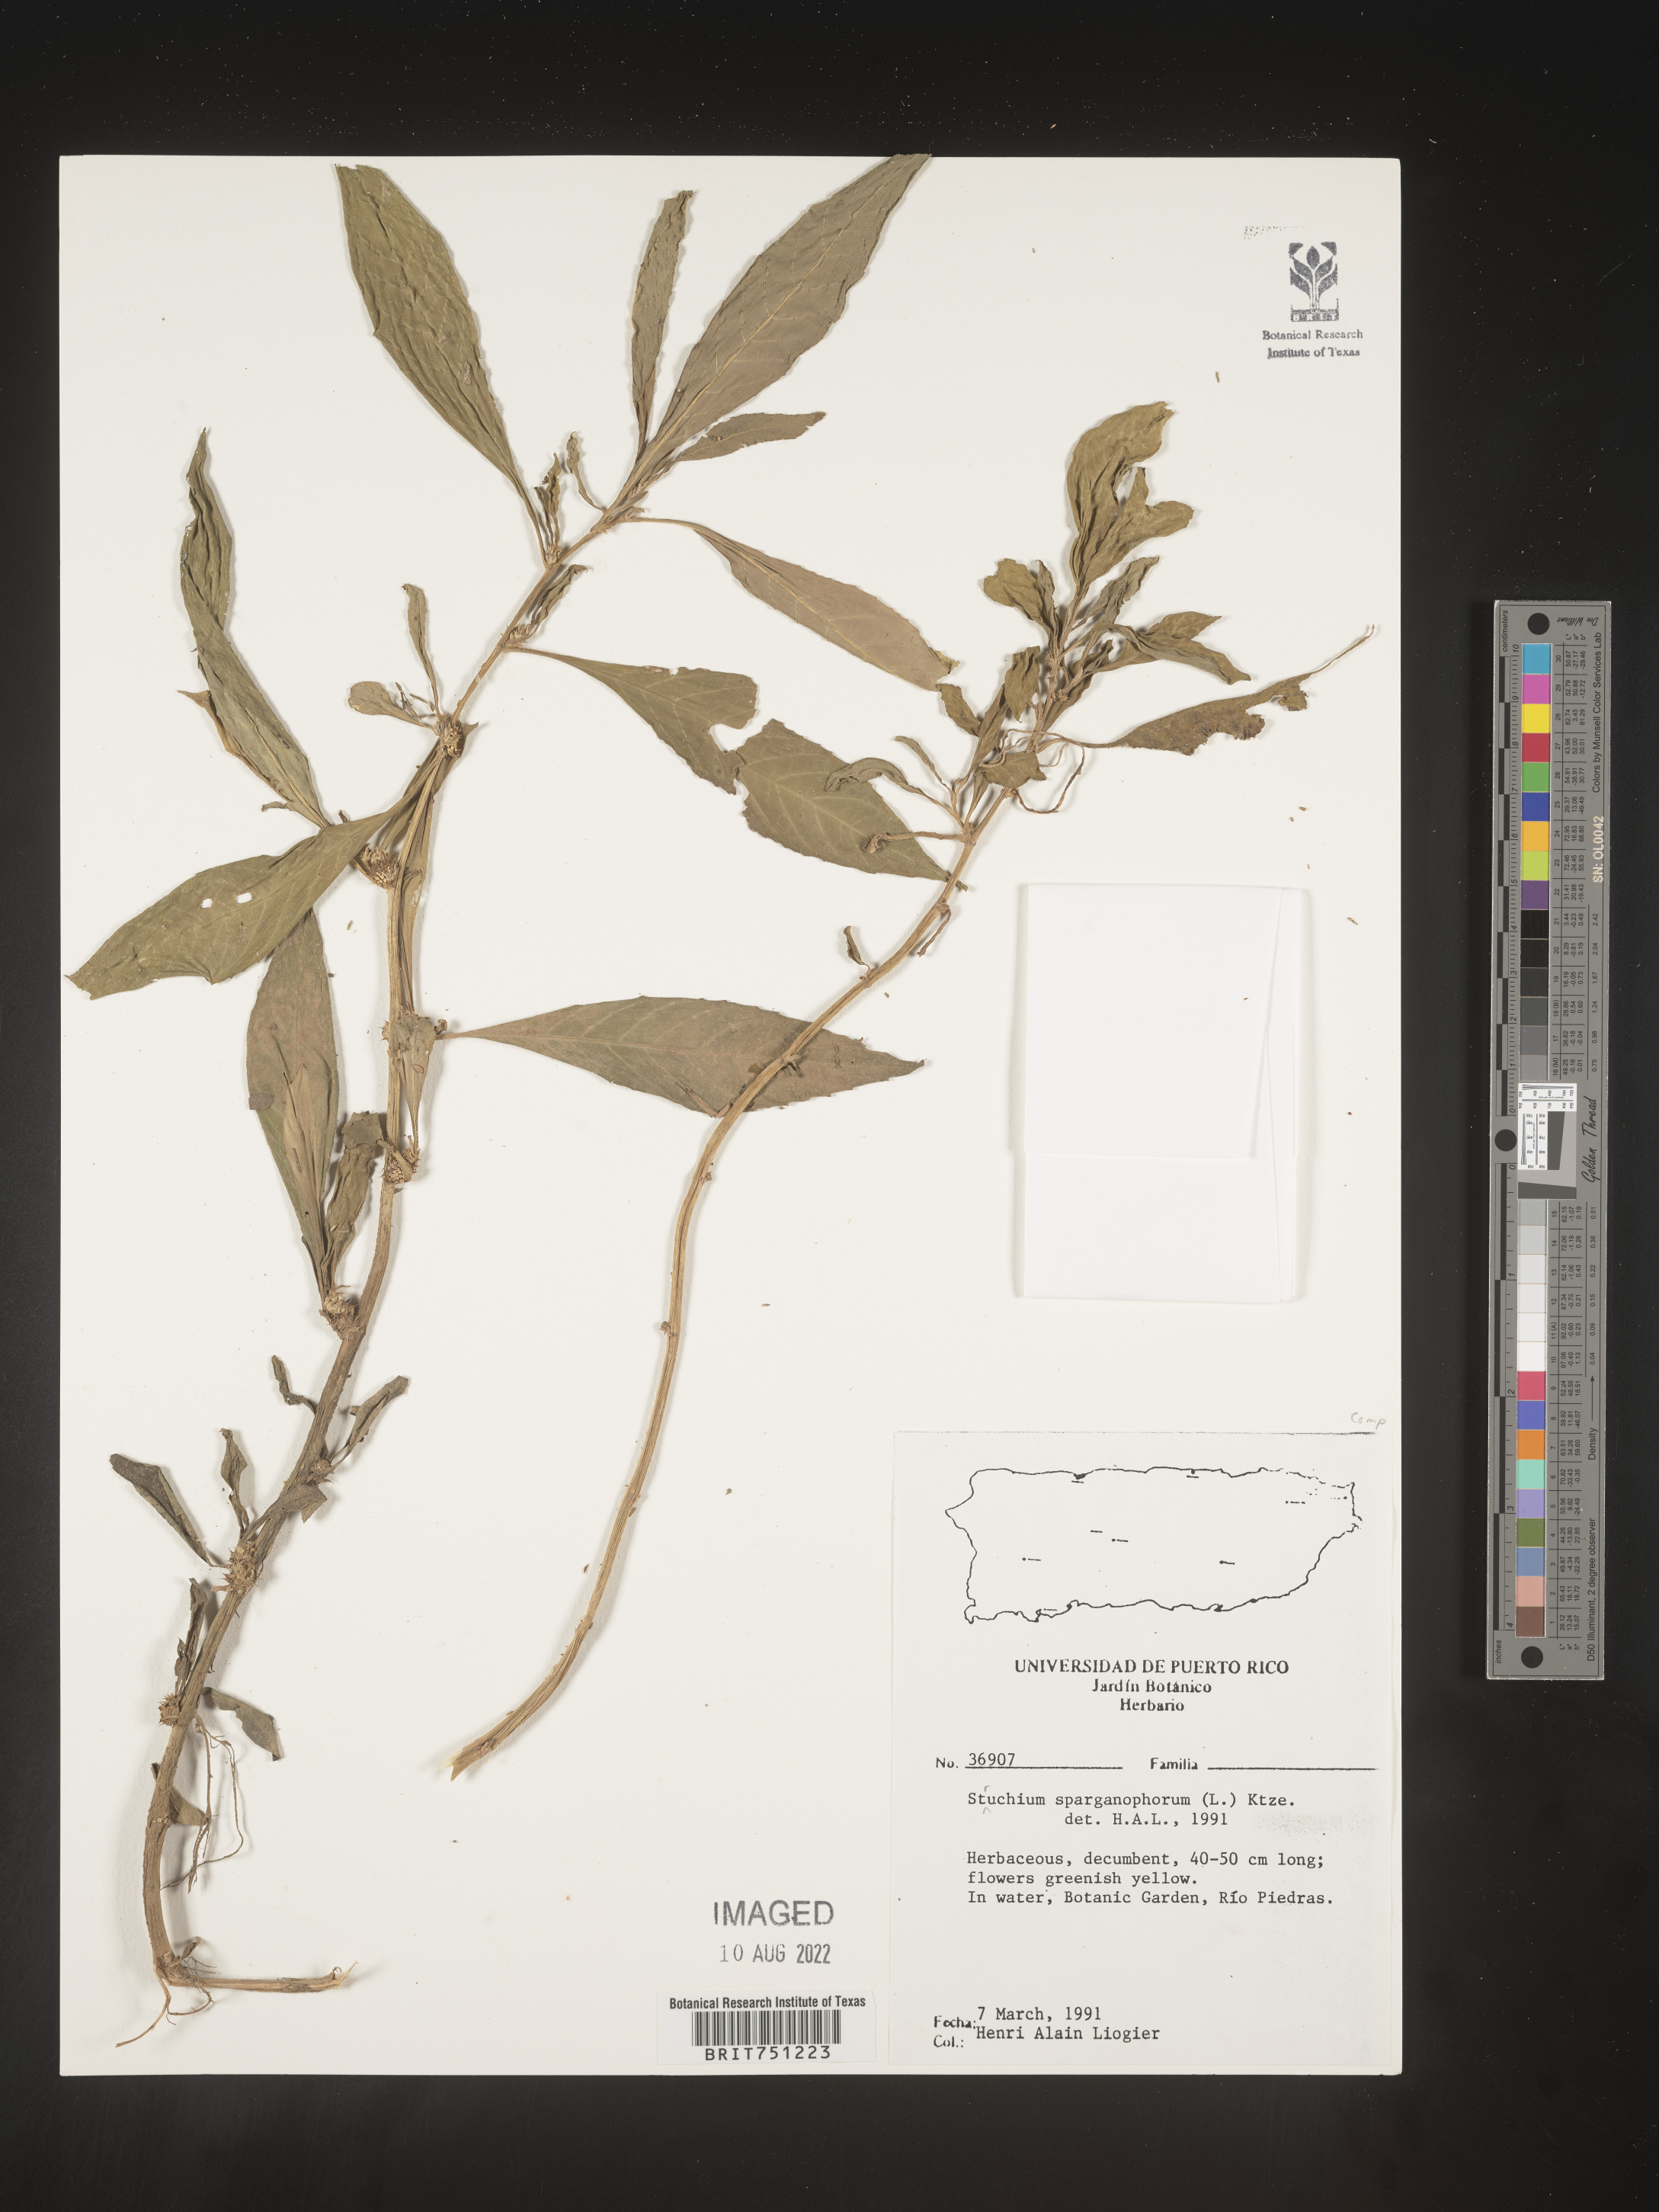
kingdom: Plantae
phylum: Tracheophyta
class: Magnoliopsida
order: Asterales
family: Asteraceae
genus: Struchium
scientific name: Struchium
